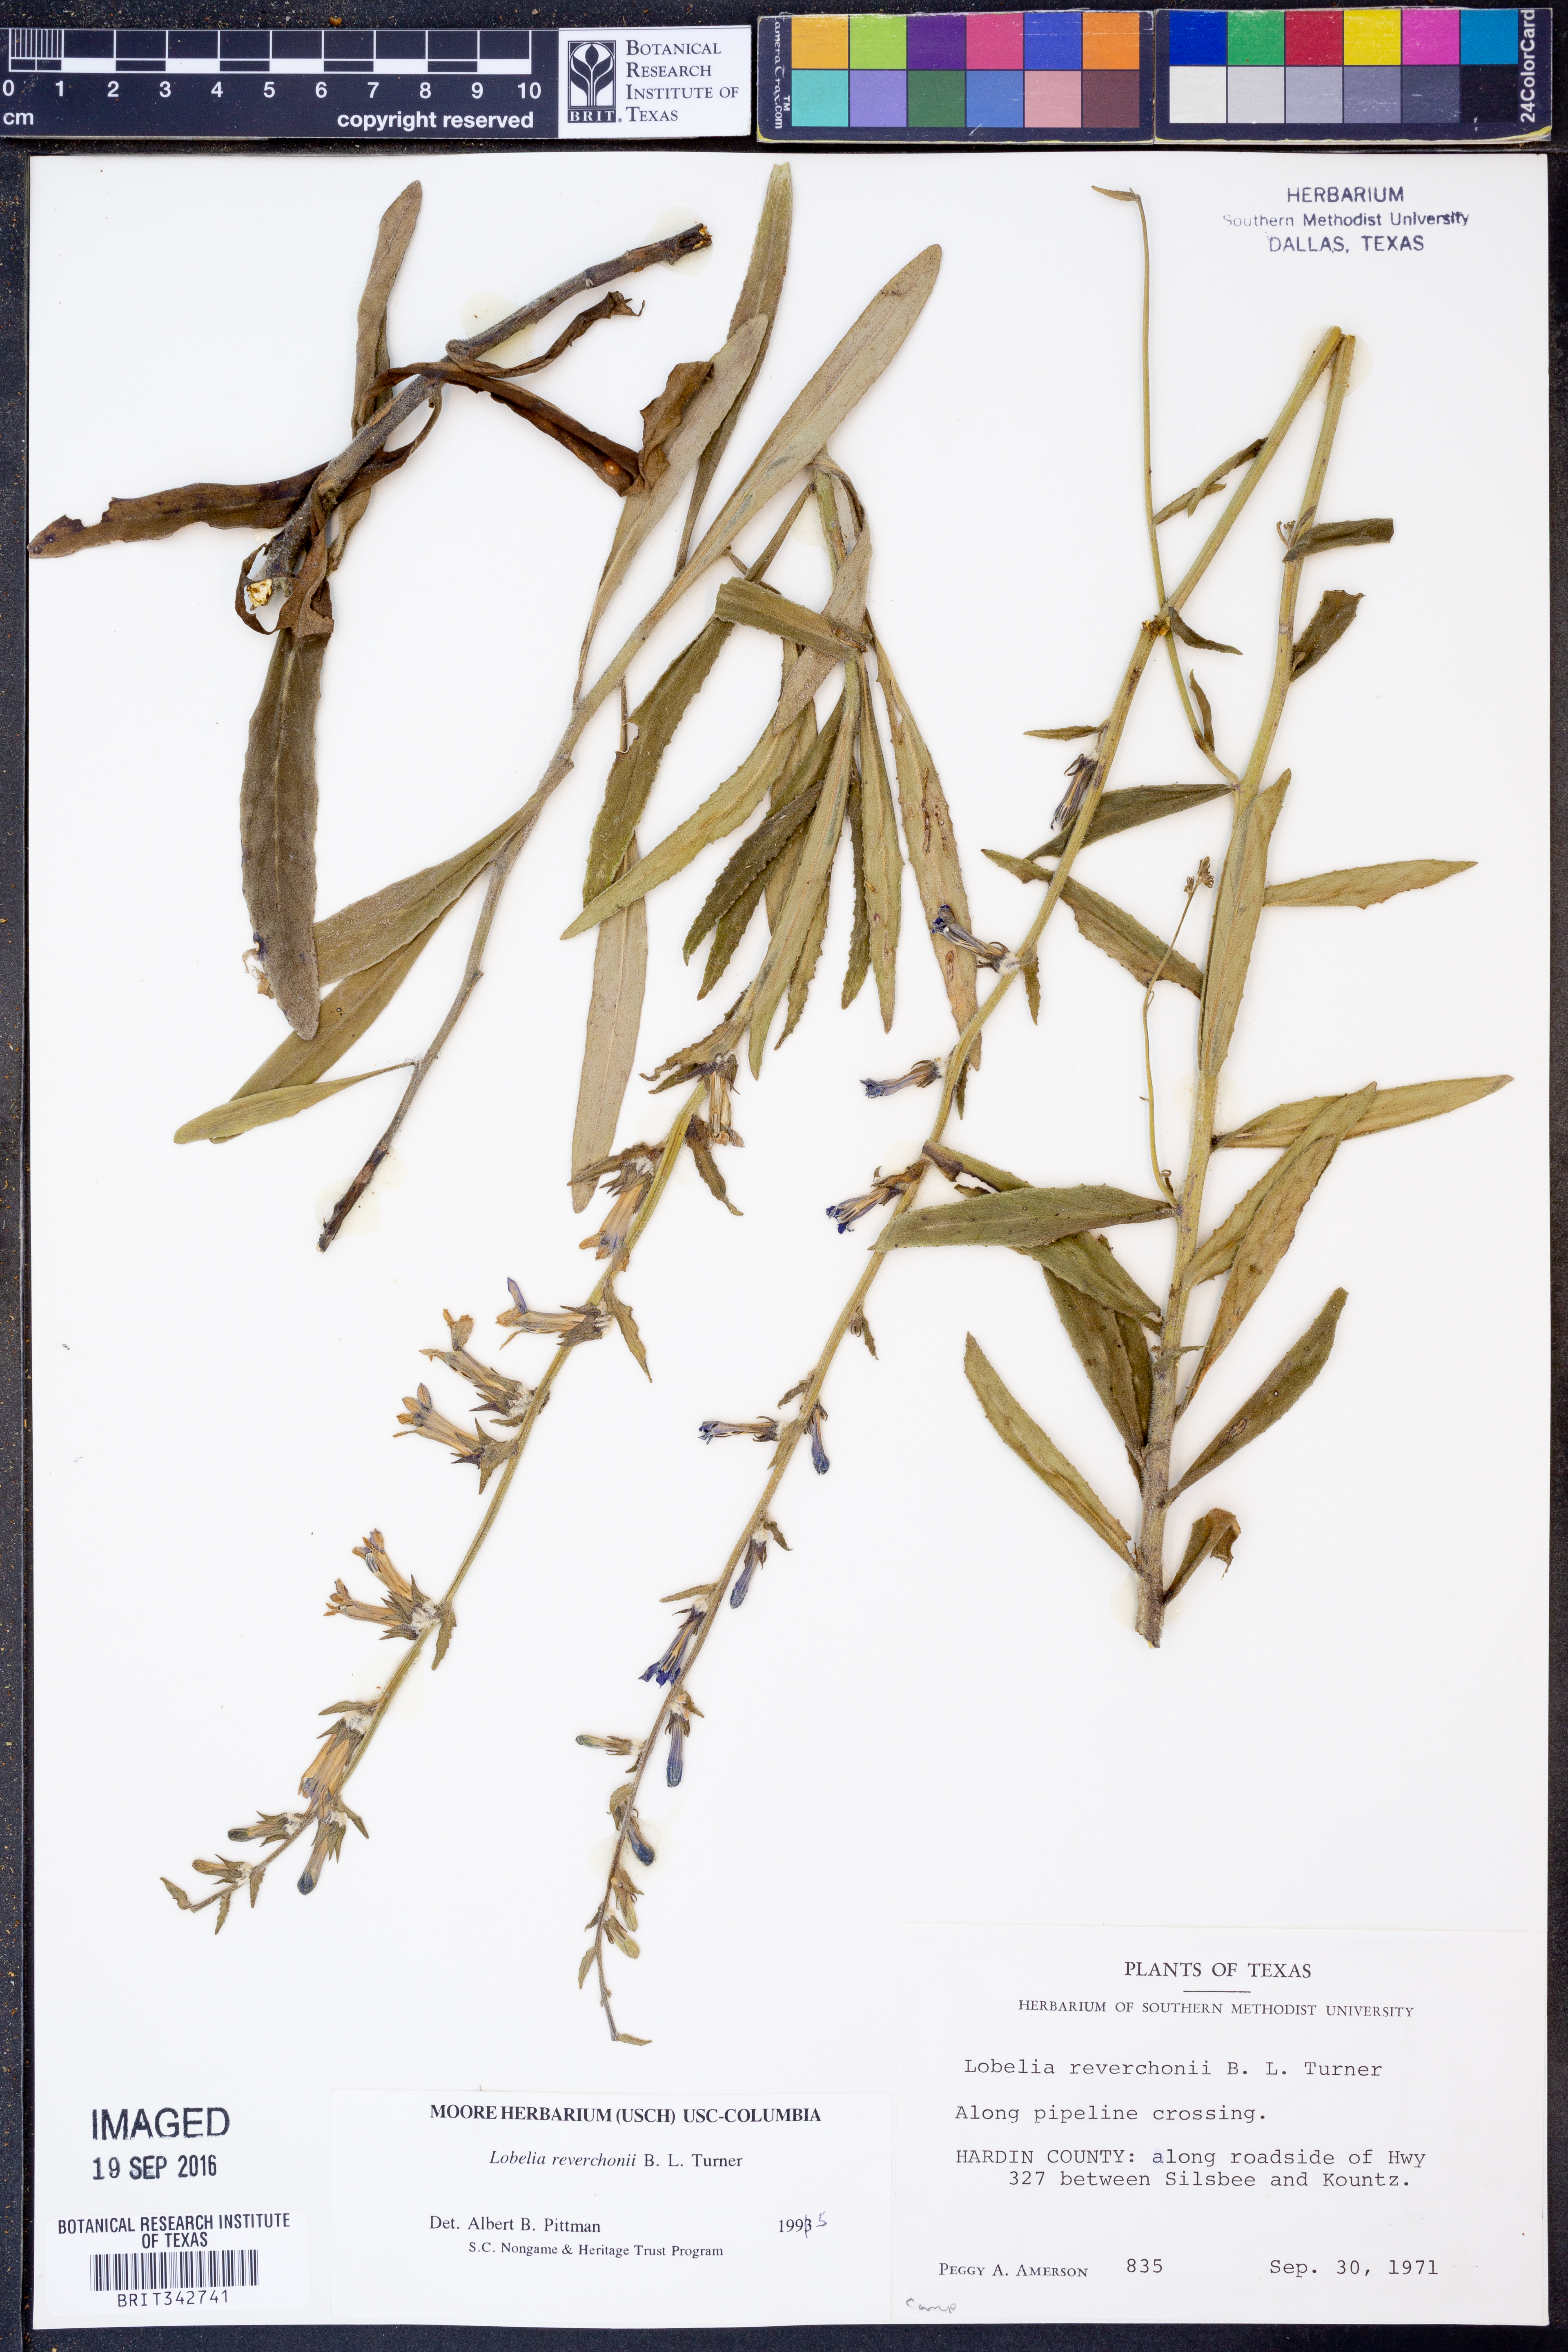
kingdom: Plantae
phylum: Tracheophyta
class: Magnoliopsida
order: Asterales
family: Campanulaceae
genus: Lobelia
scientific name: Lobelia reverchonii
